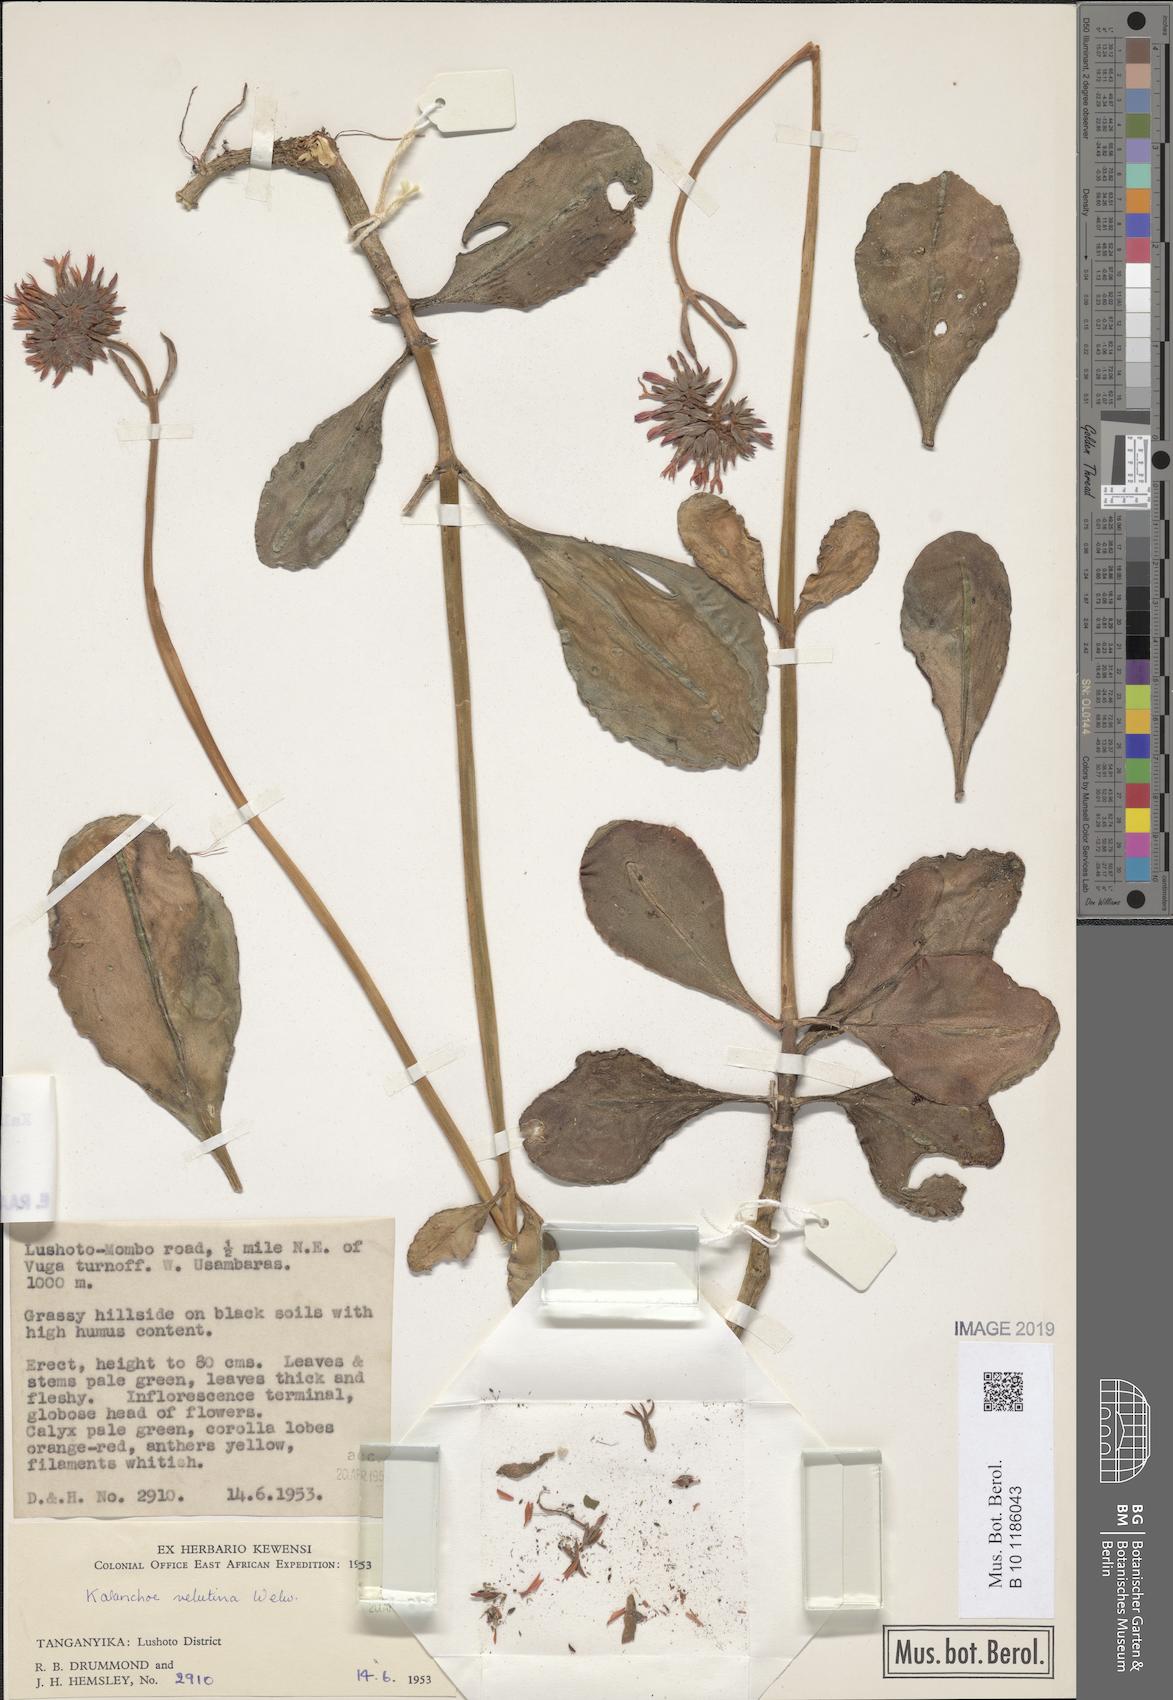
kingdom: Plantae
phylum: Tracheophyta
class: Magnoliopsida
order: Saxifragales
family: Crassulaceae
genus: Kalanchoe
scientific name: Kalanchoe lateritia
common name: Kalanchoe
